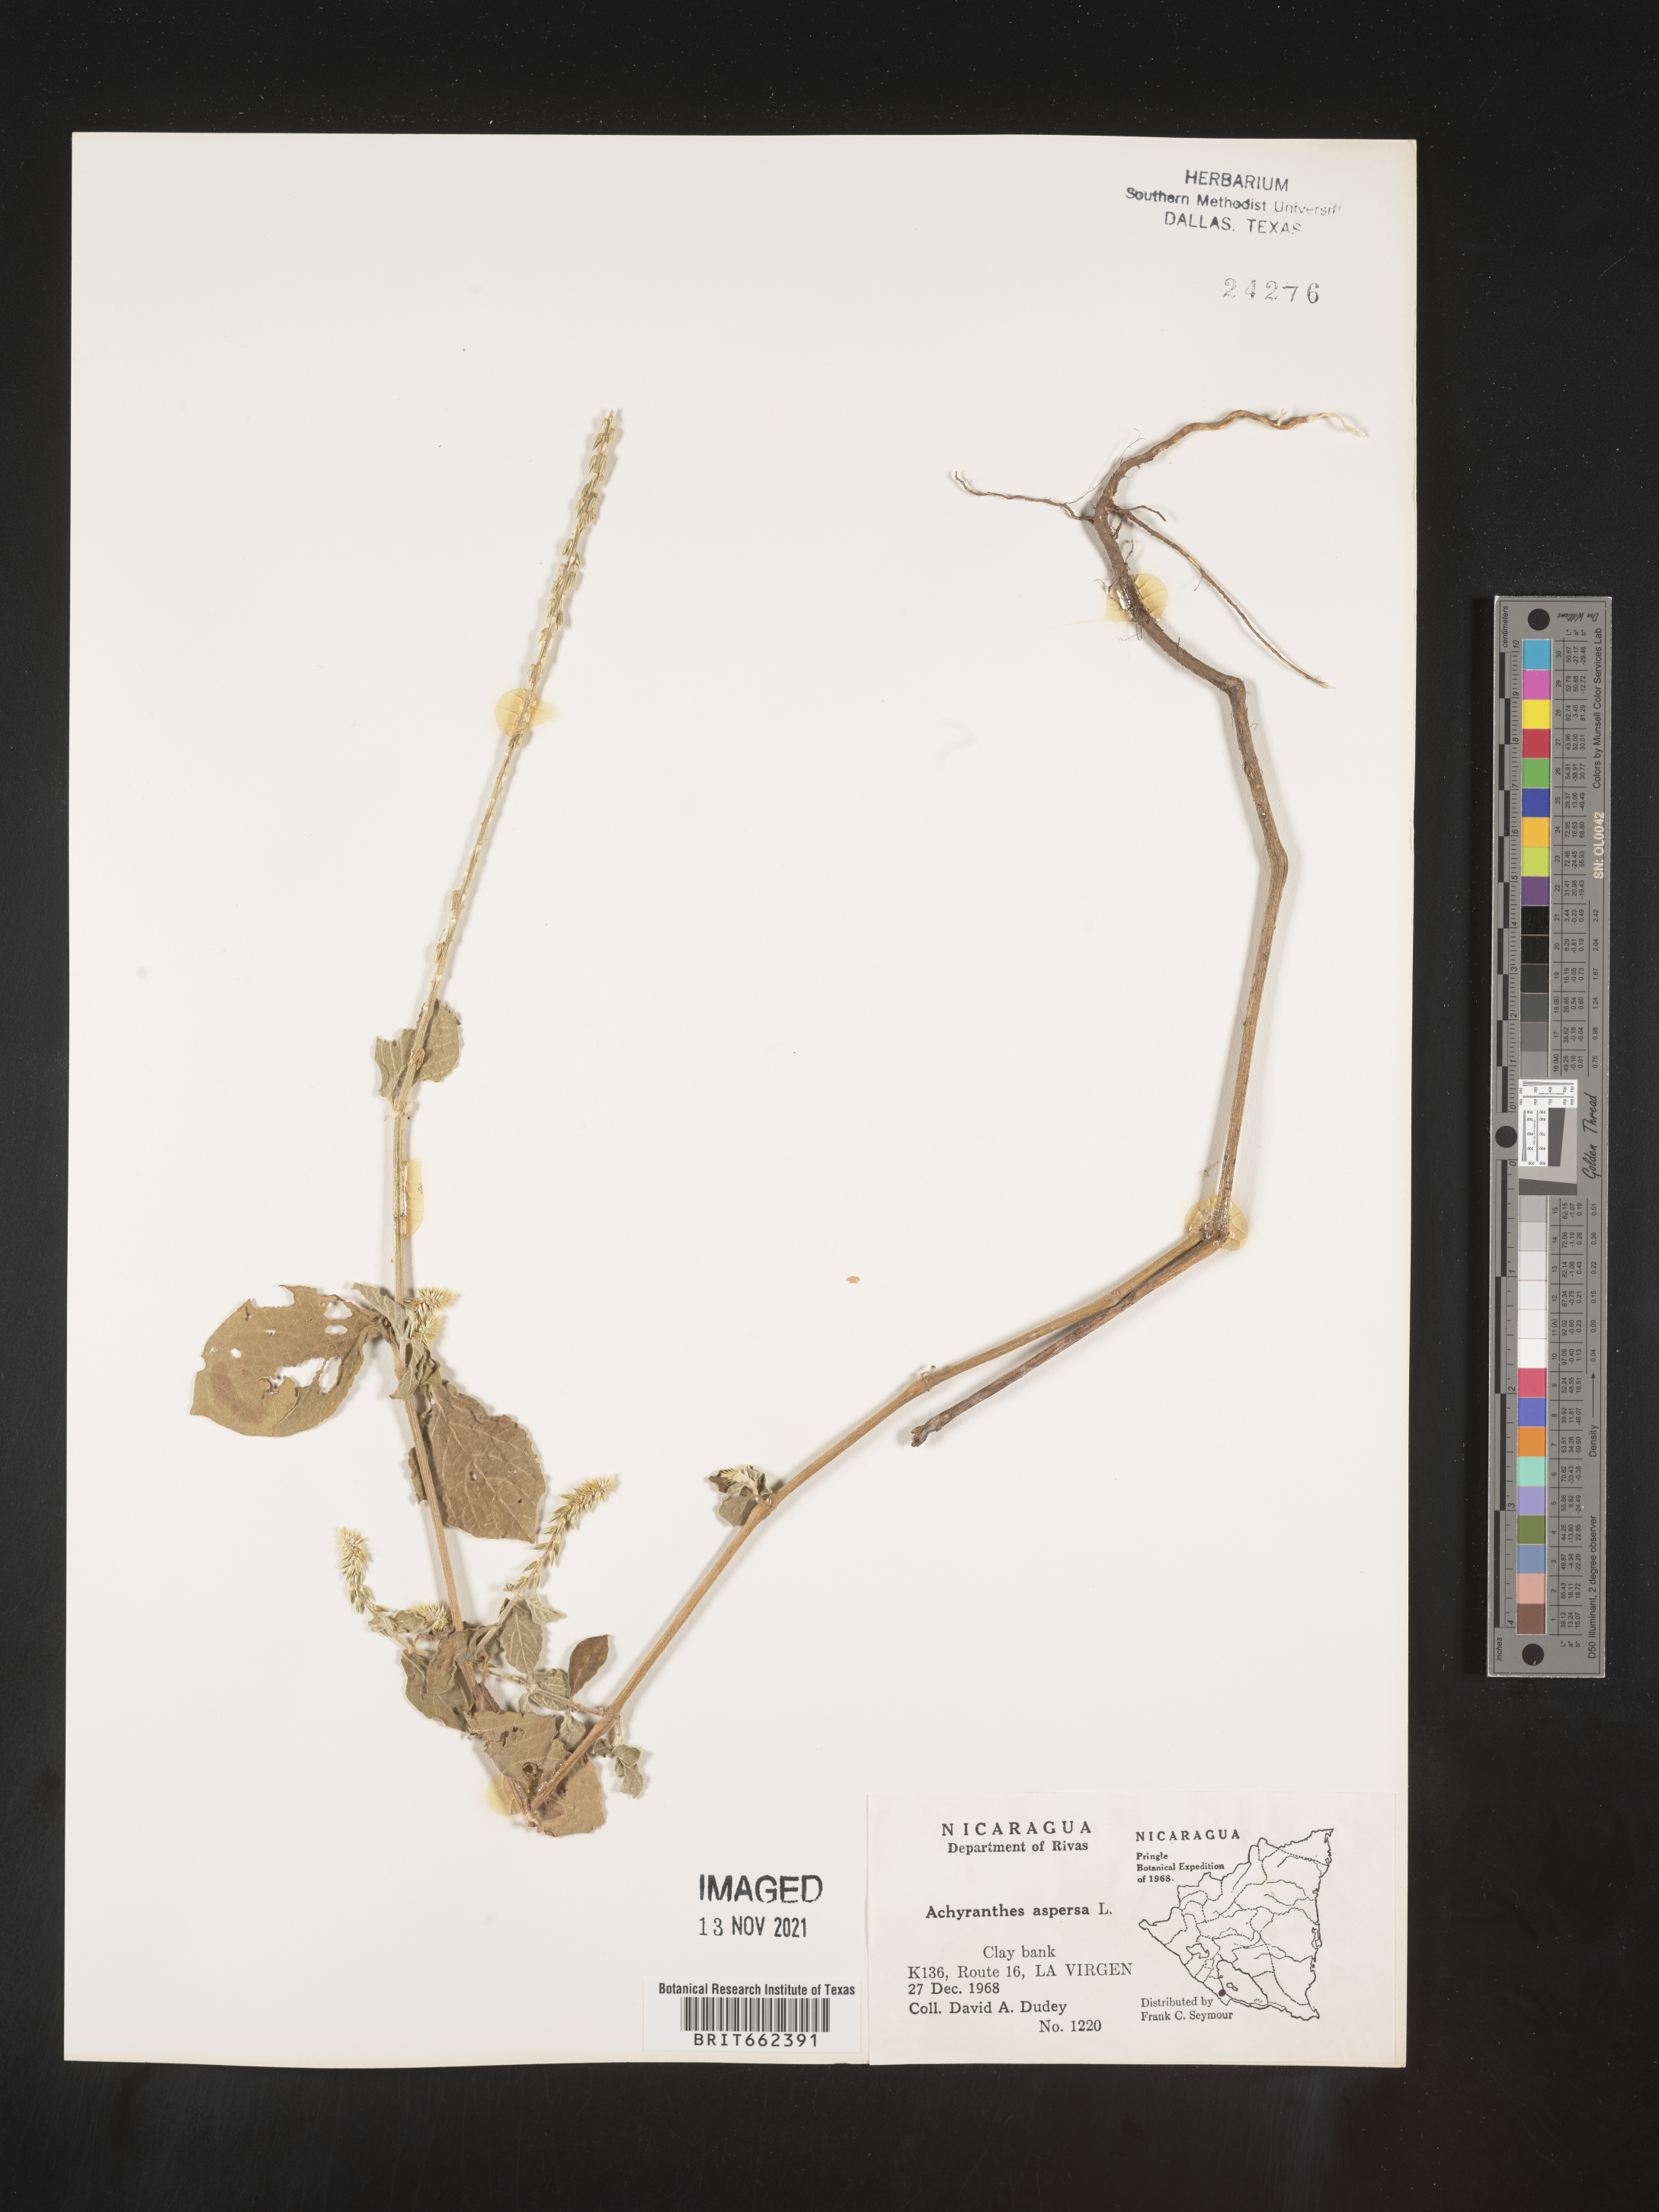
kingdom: Plantae
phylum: Tracheophyta
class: Magnoliopsida
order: Caryophyllales
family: Amaranthaceae
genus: Achyranthes
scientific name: Achyranthes
